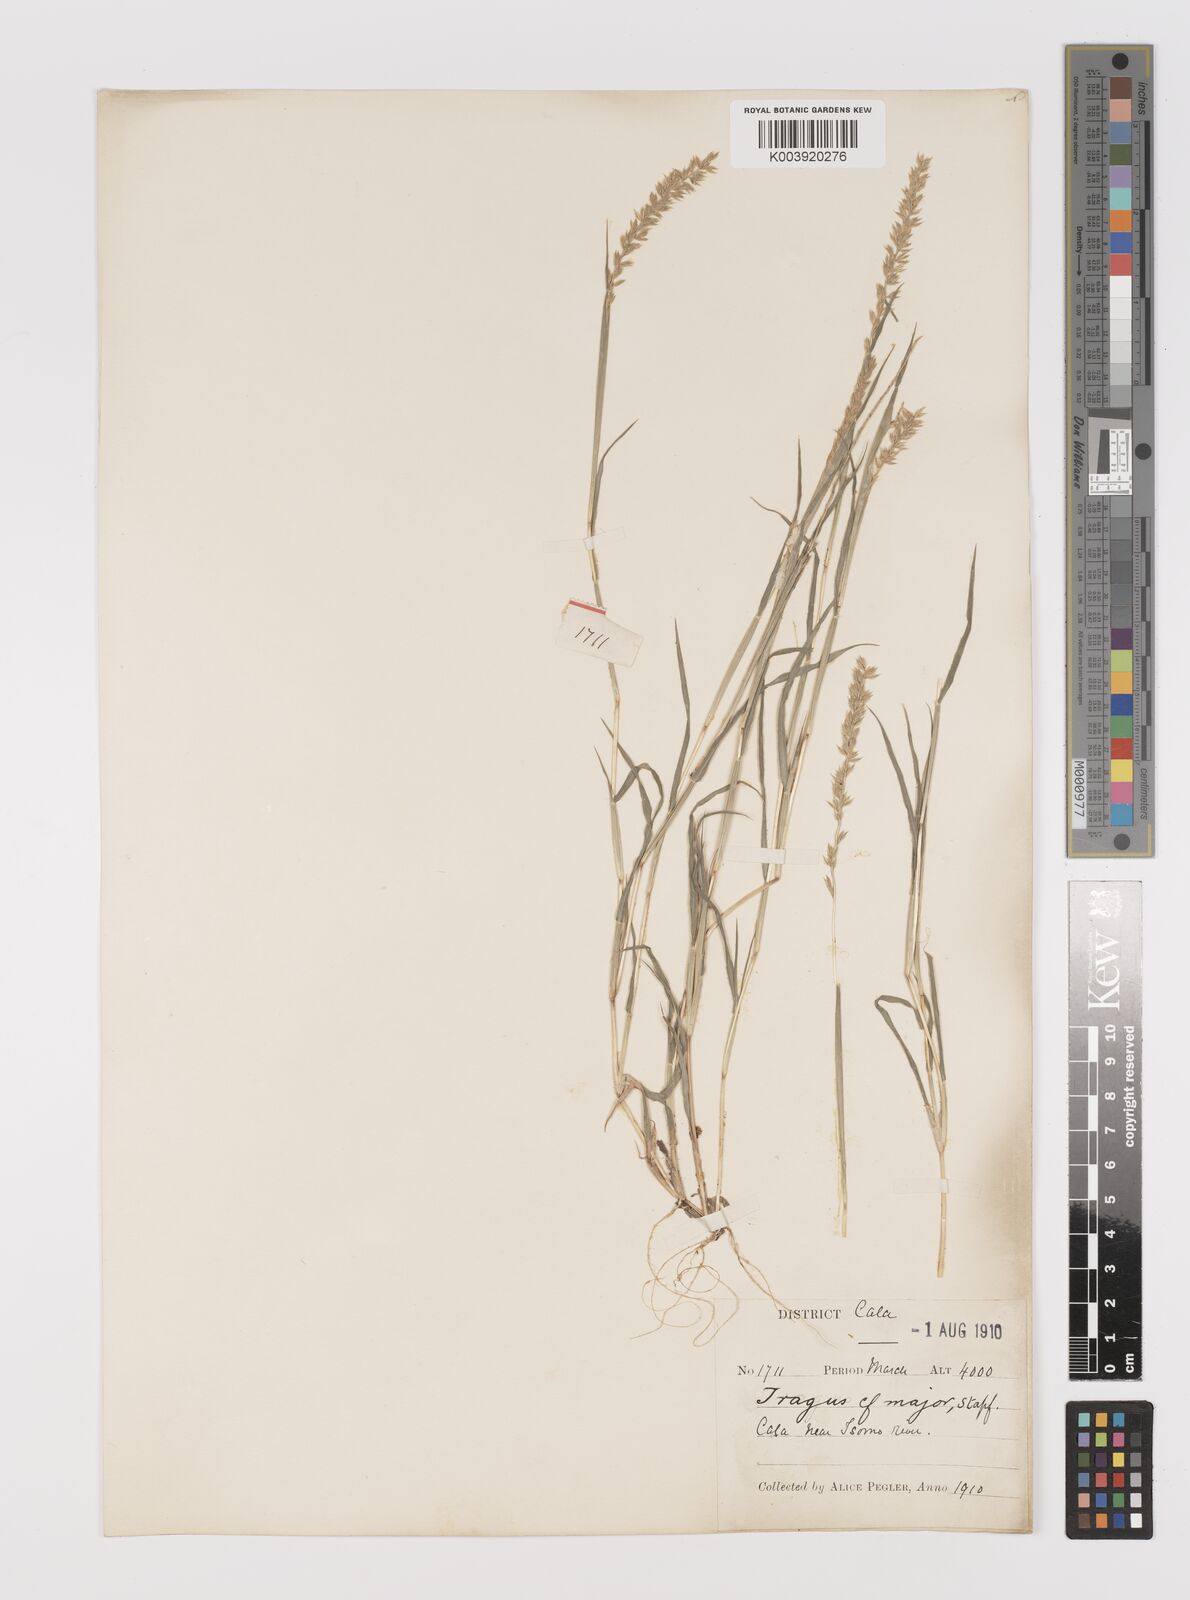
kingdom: Plantae
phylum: Tracheophyta
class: Liliopsida
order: Poales
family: Poaceae
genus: Tragus
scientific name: Tragus racemosus
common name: European bur-grass
